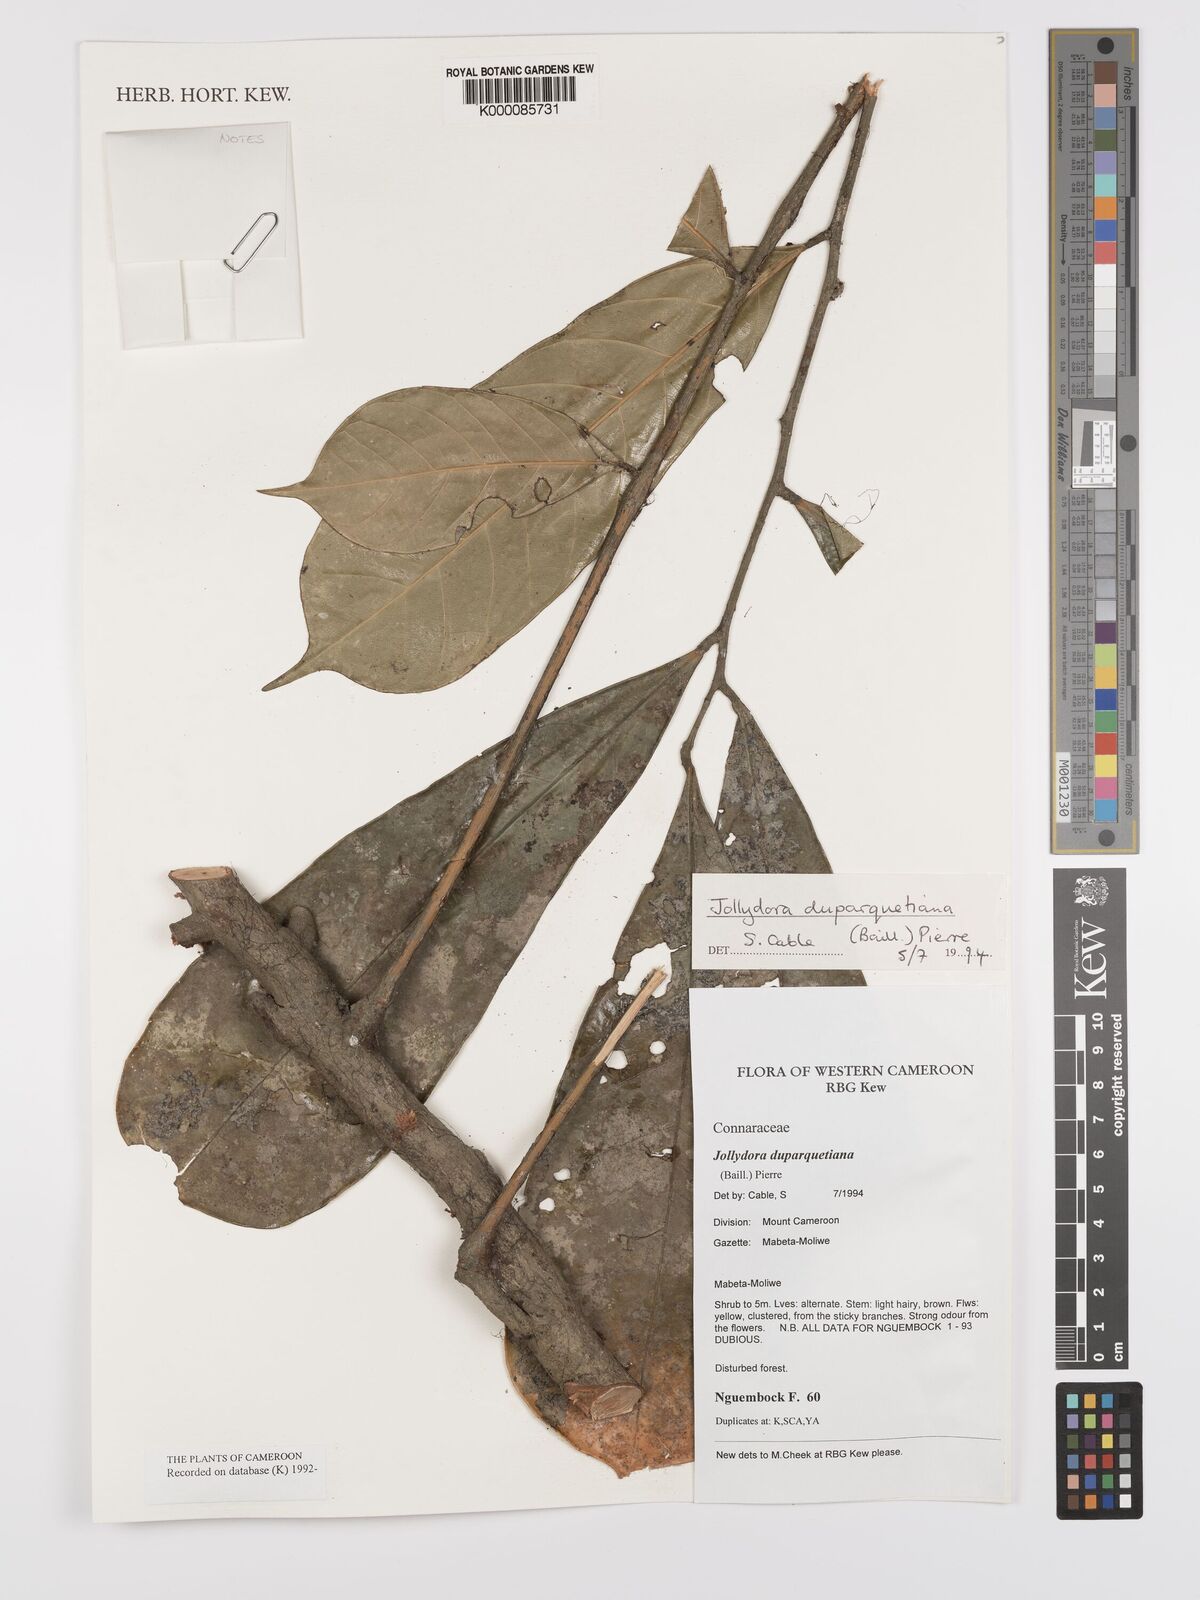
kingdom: Plantae
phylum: Tracheophyta
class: Magnoliopsida
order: Oxalidales
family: Connaraceae
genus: Jollydora
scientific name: Jollydora duparquetiana
